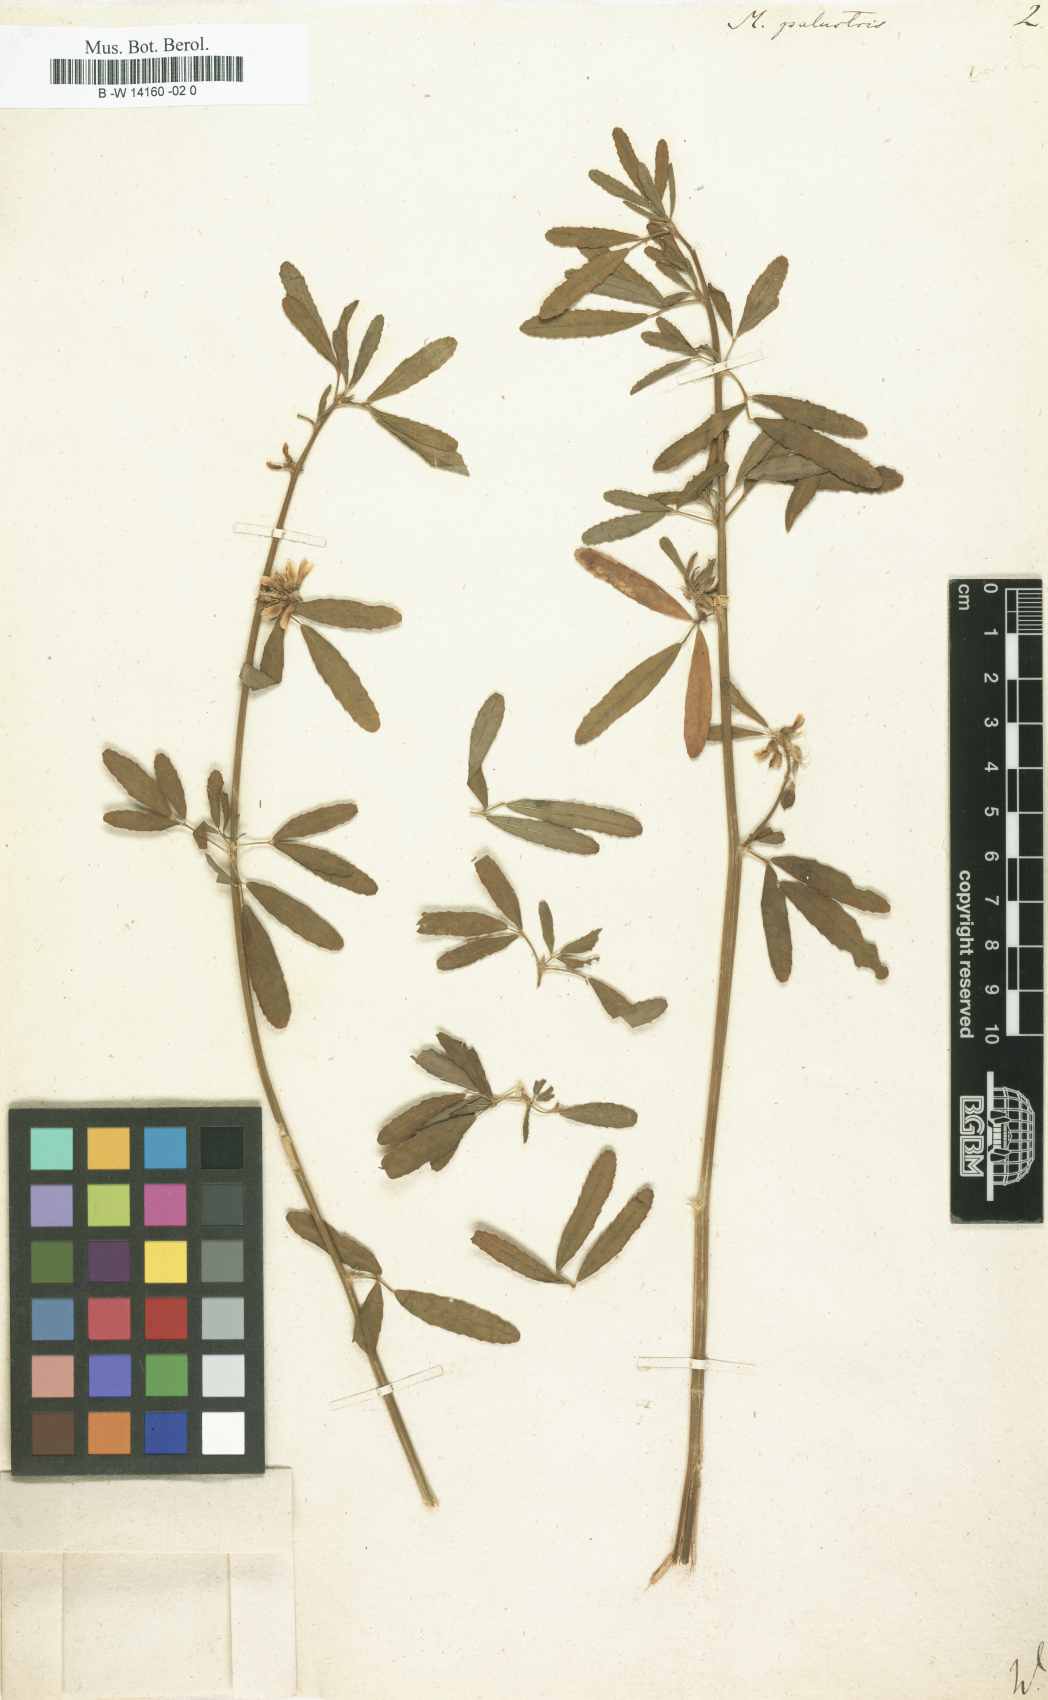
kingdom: Plantae
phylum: Tracheophyta
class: Magnoliopsida
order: Fabales
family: Fabaceae
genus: Melilotus
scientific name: Melilotus officinalis
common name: Sweetclover
